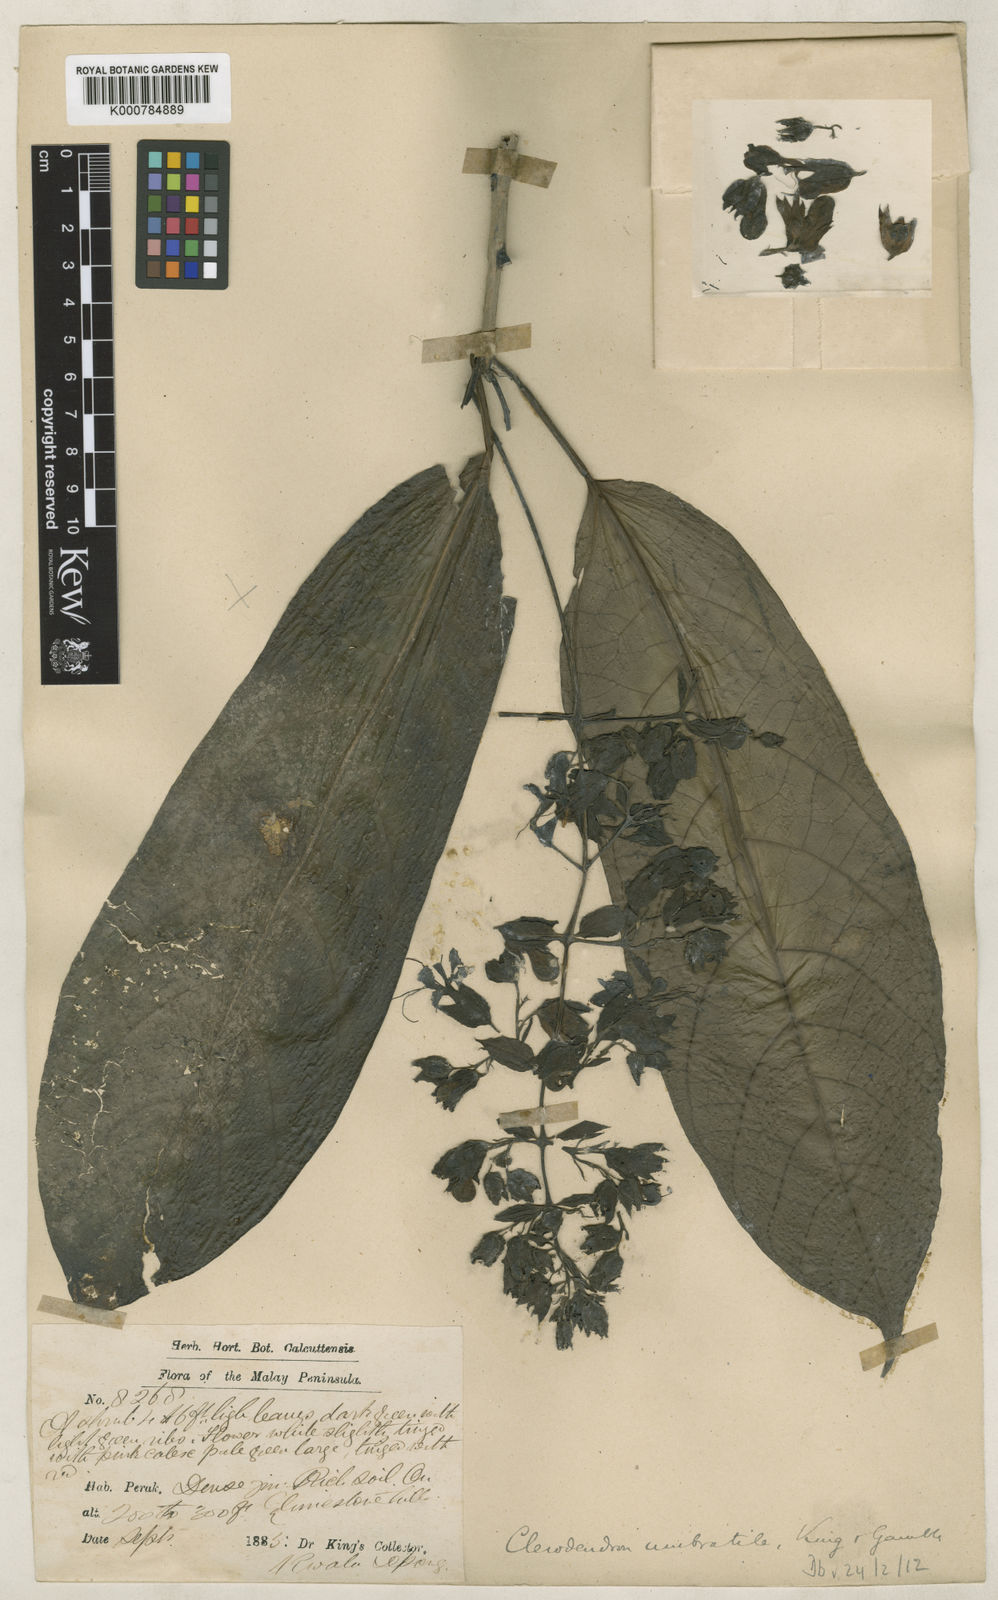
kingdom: Plantae
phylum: Tracheophyta
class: Magnoliopsida
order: Lamiales
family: Lamiaceae
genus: Clerodendrum
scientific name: Clerodendrum umbratile
